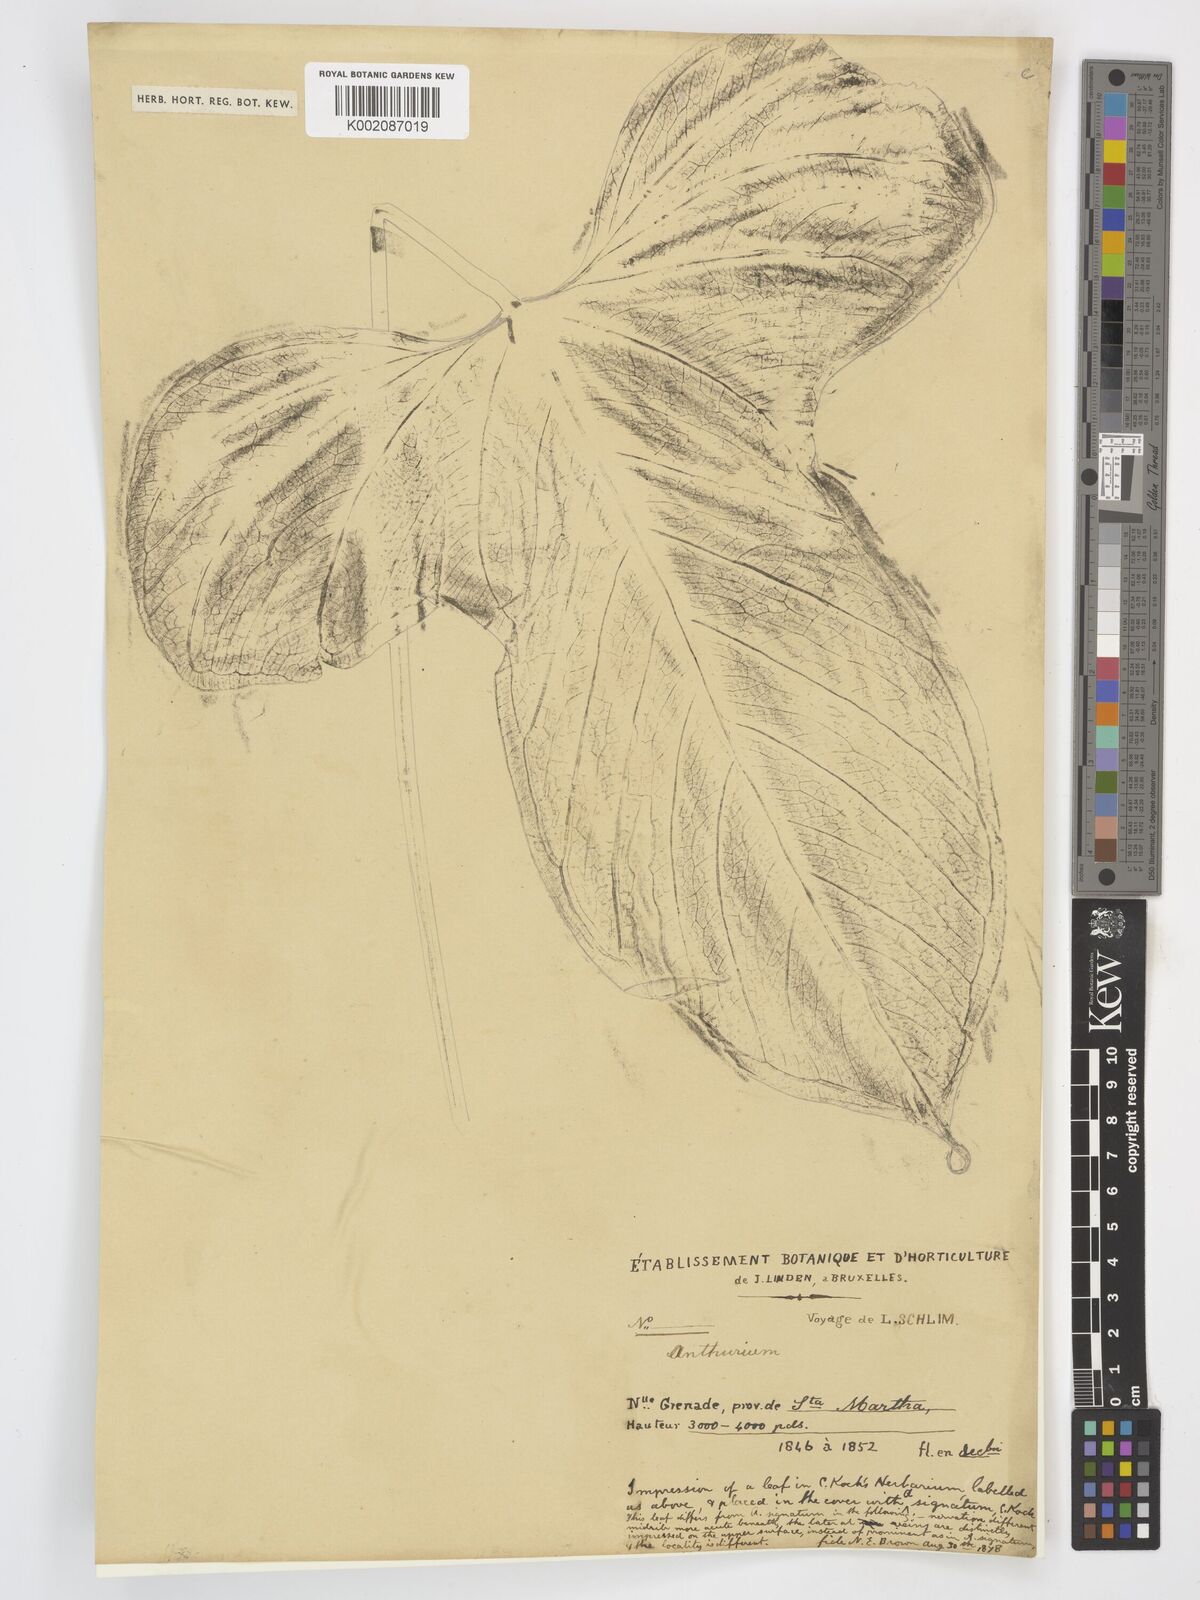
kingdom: Plantae
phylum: Tracheophyta
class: Liliopsida
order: Alismatales
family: Araceae
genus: Anthurium
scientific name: Anthurium
